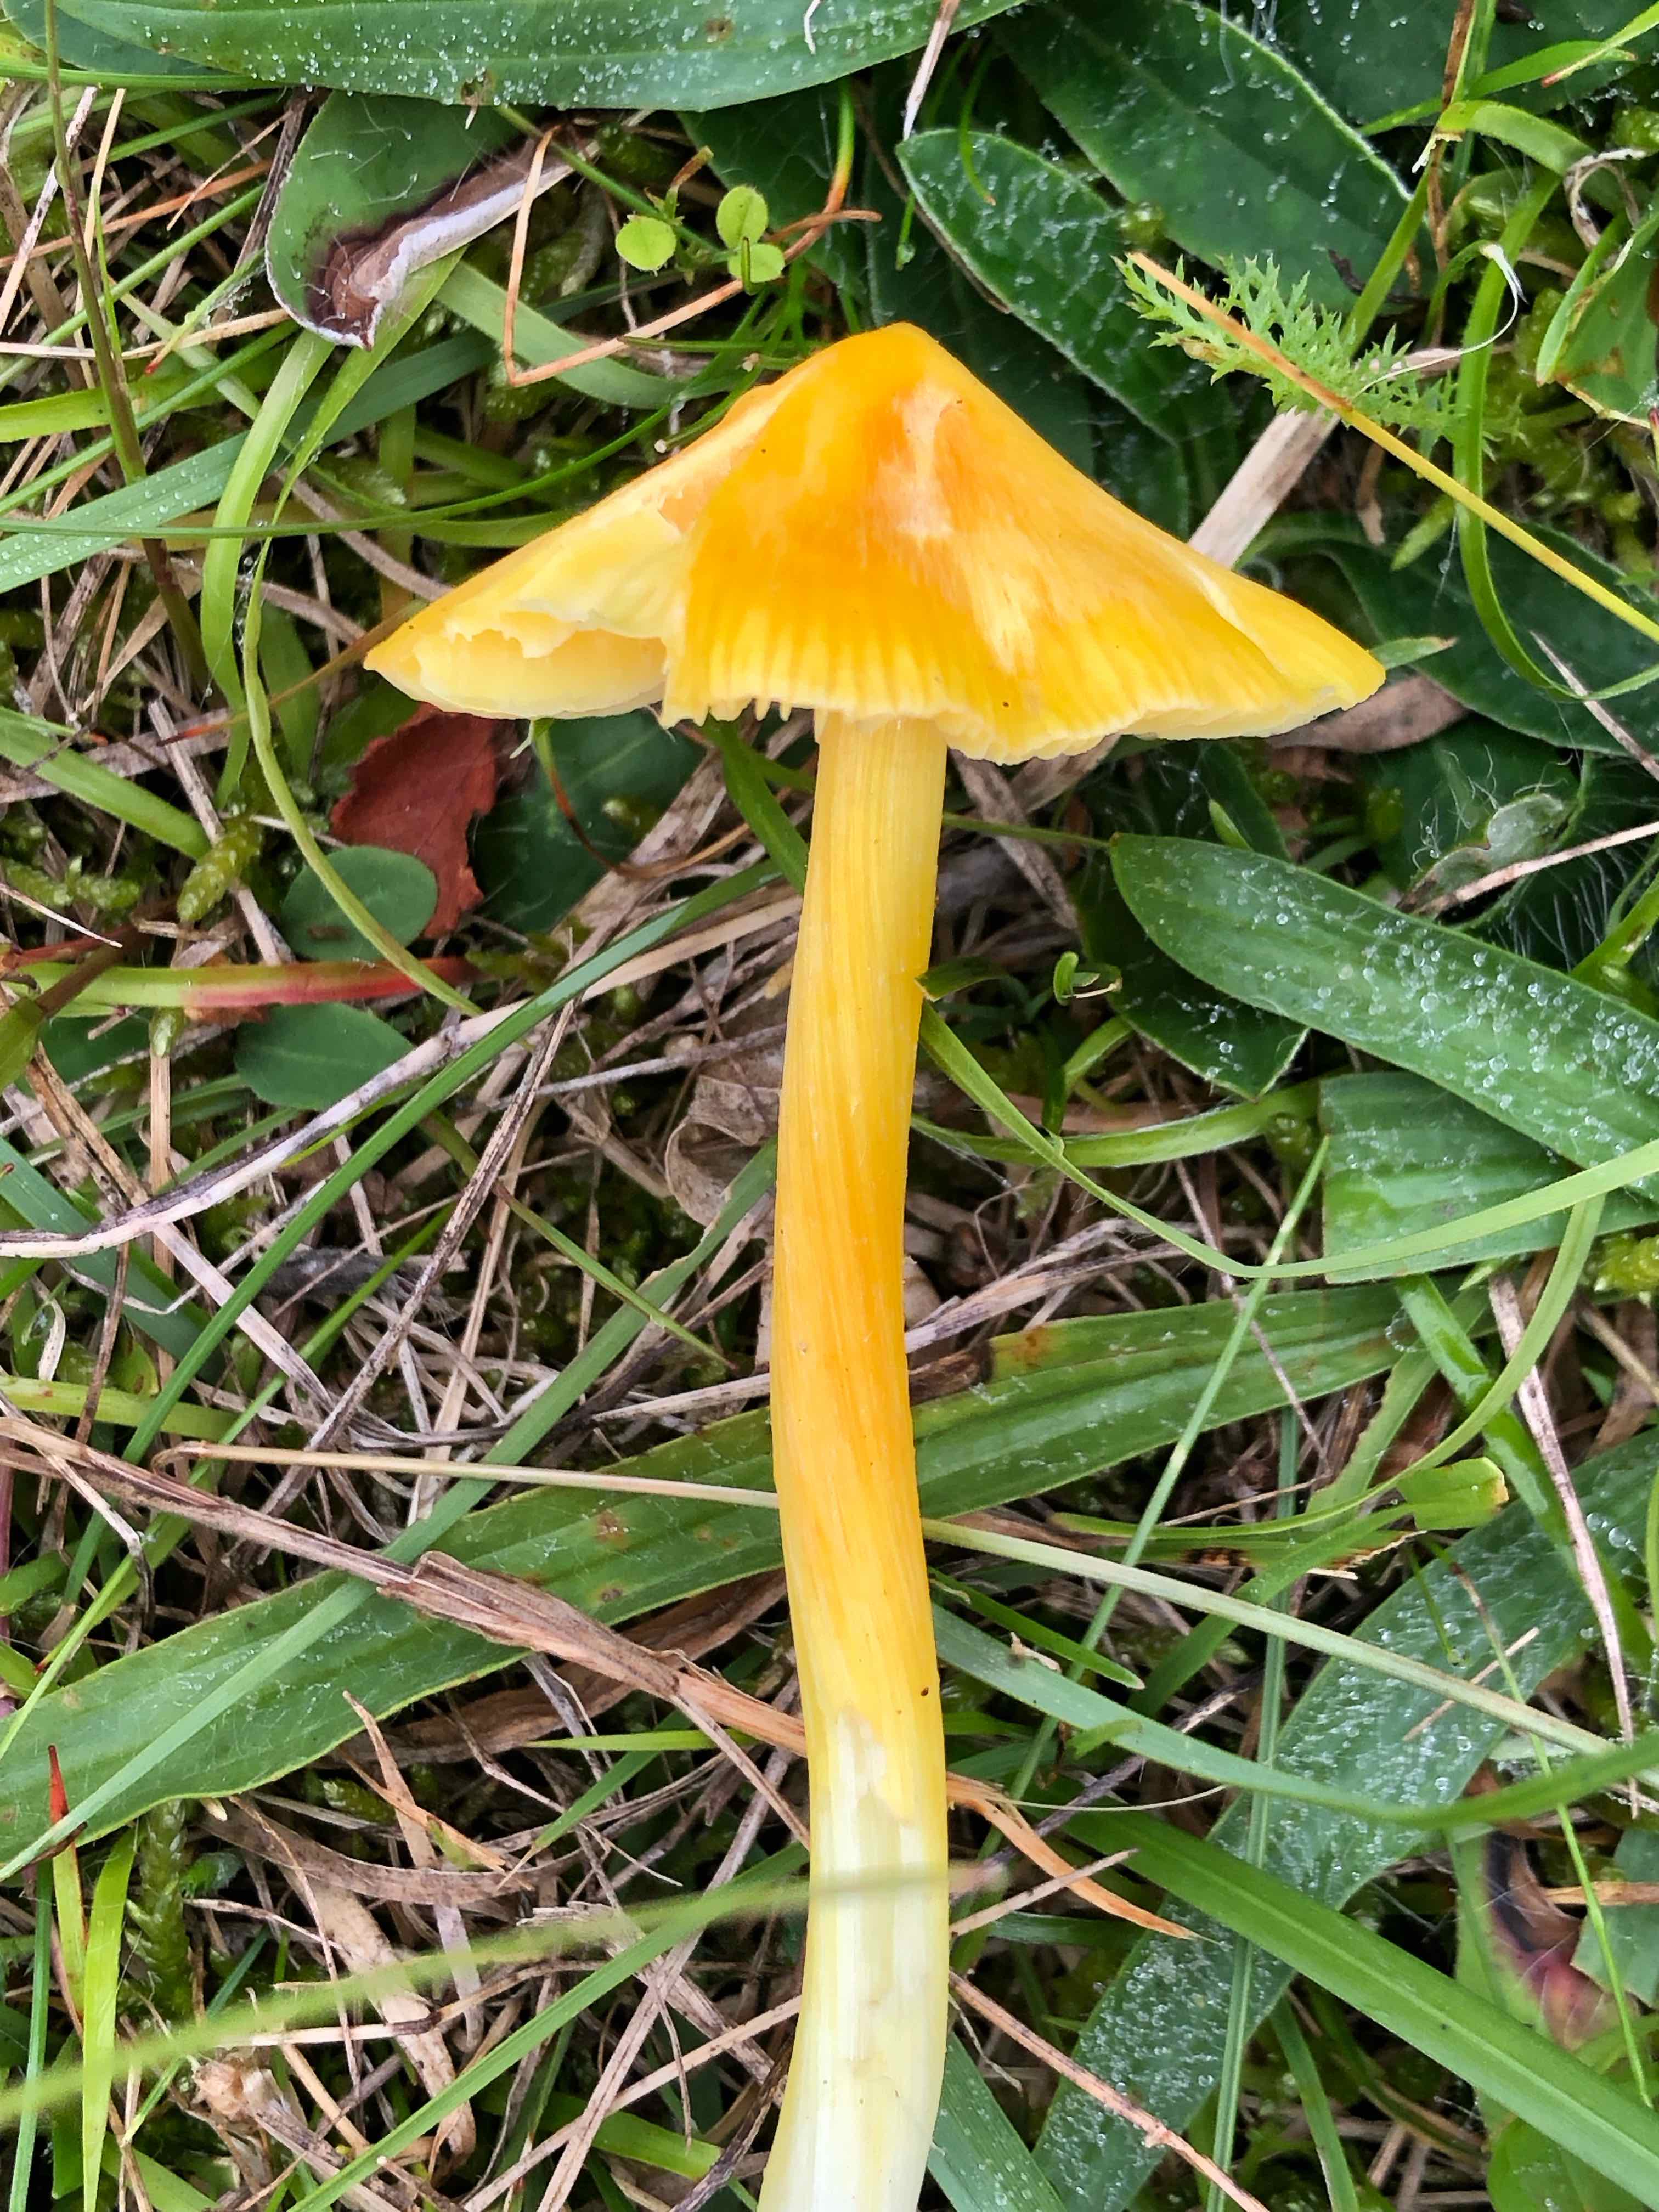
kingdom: Fungi
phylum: Basidiomycota
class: Agaricomycetes
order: Agaricales
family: Hygrophoraceae
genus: Hygrocybe
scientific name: Hygrocybe acutoconica
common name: spidspuklet vokshat
